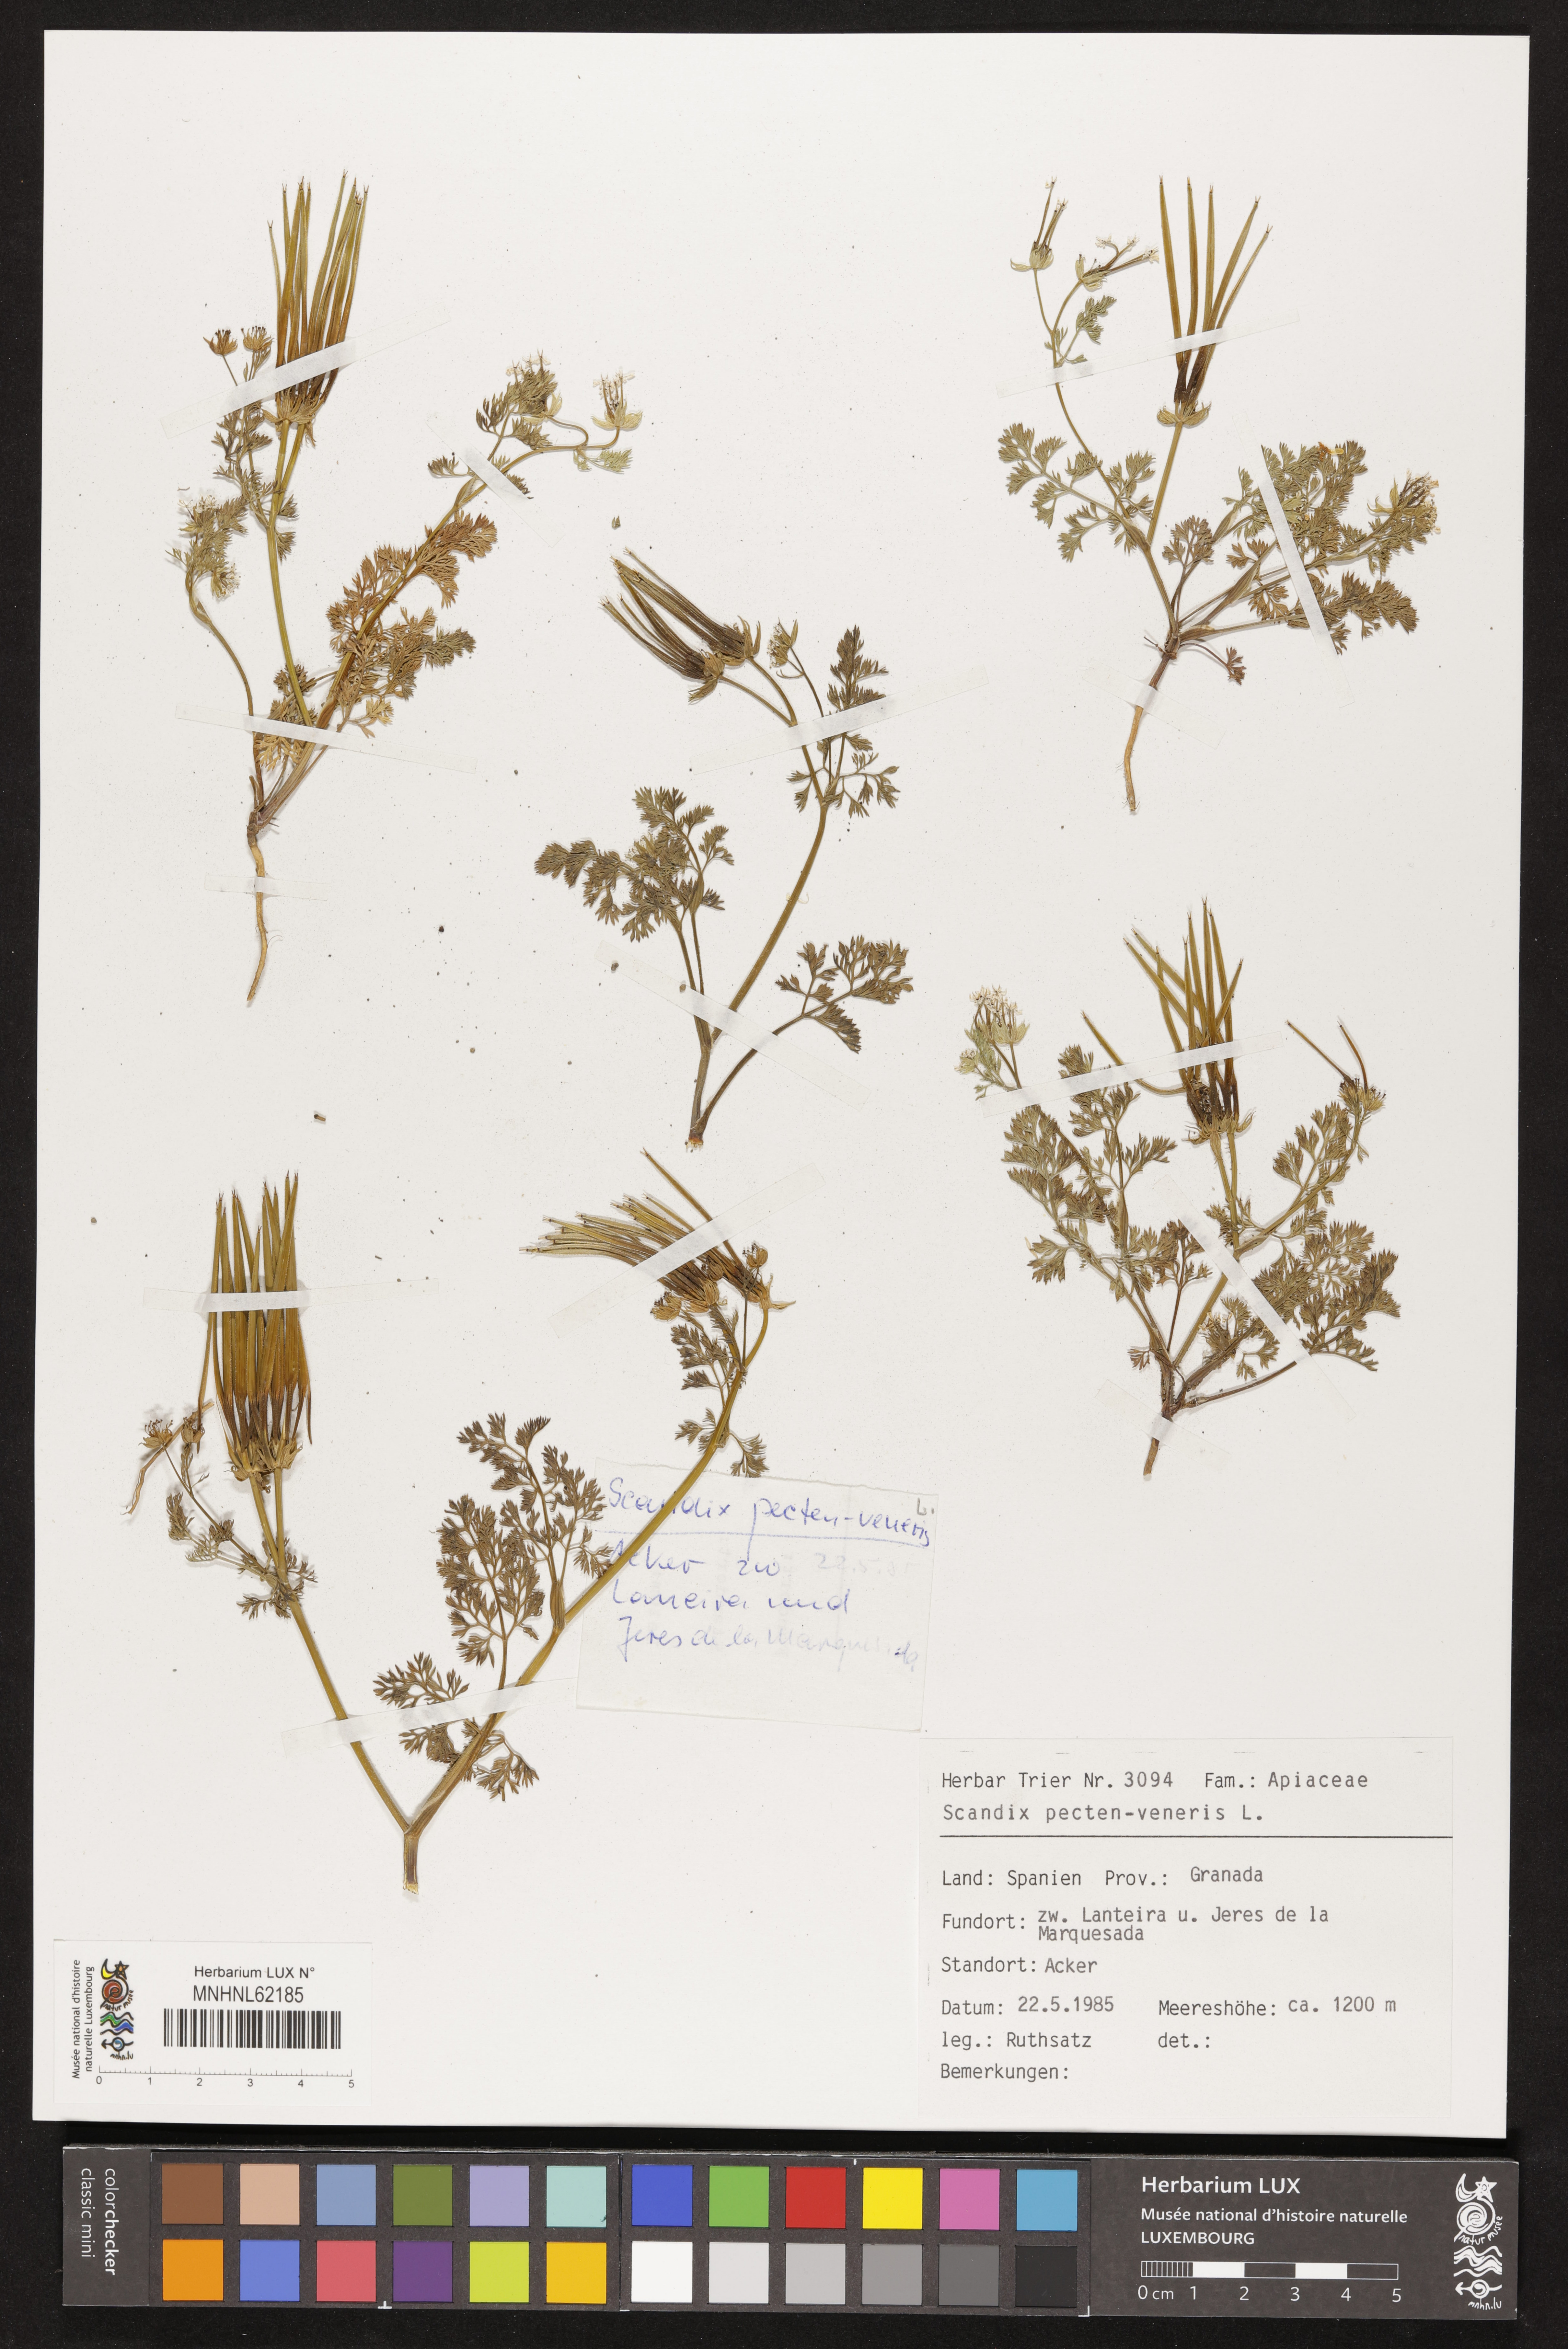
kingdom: Plantae
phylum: Tracheophyta
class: Magnoliopsida
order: Apiales
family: Apiaceae
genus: Scandix
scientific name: Scandix pecten-veneris
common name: Shepherd's-needle
